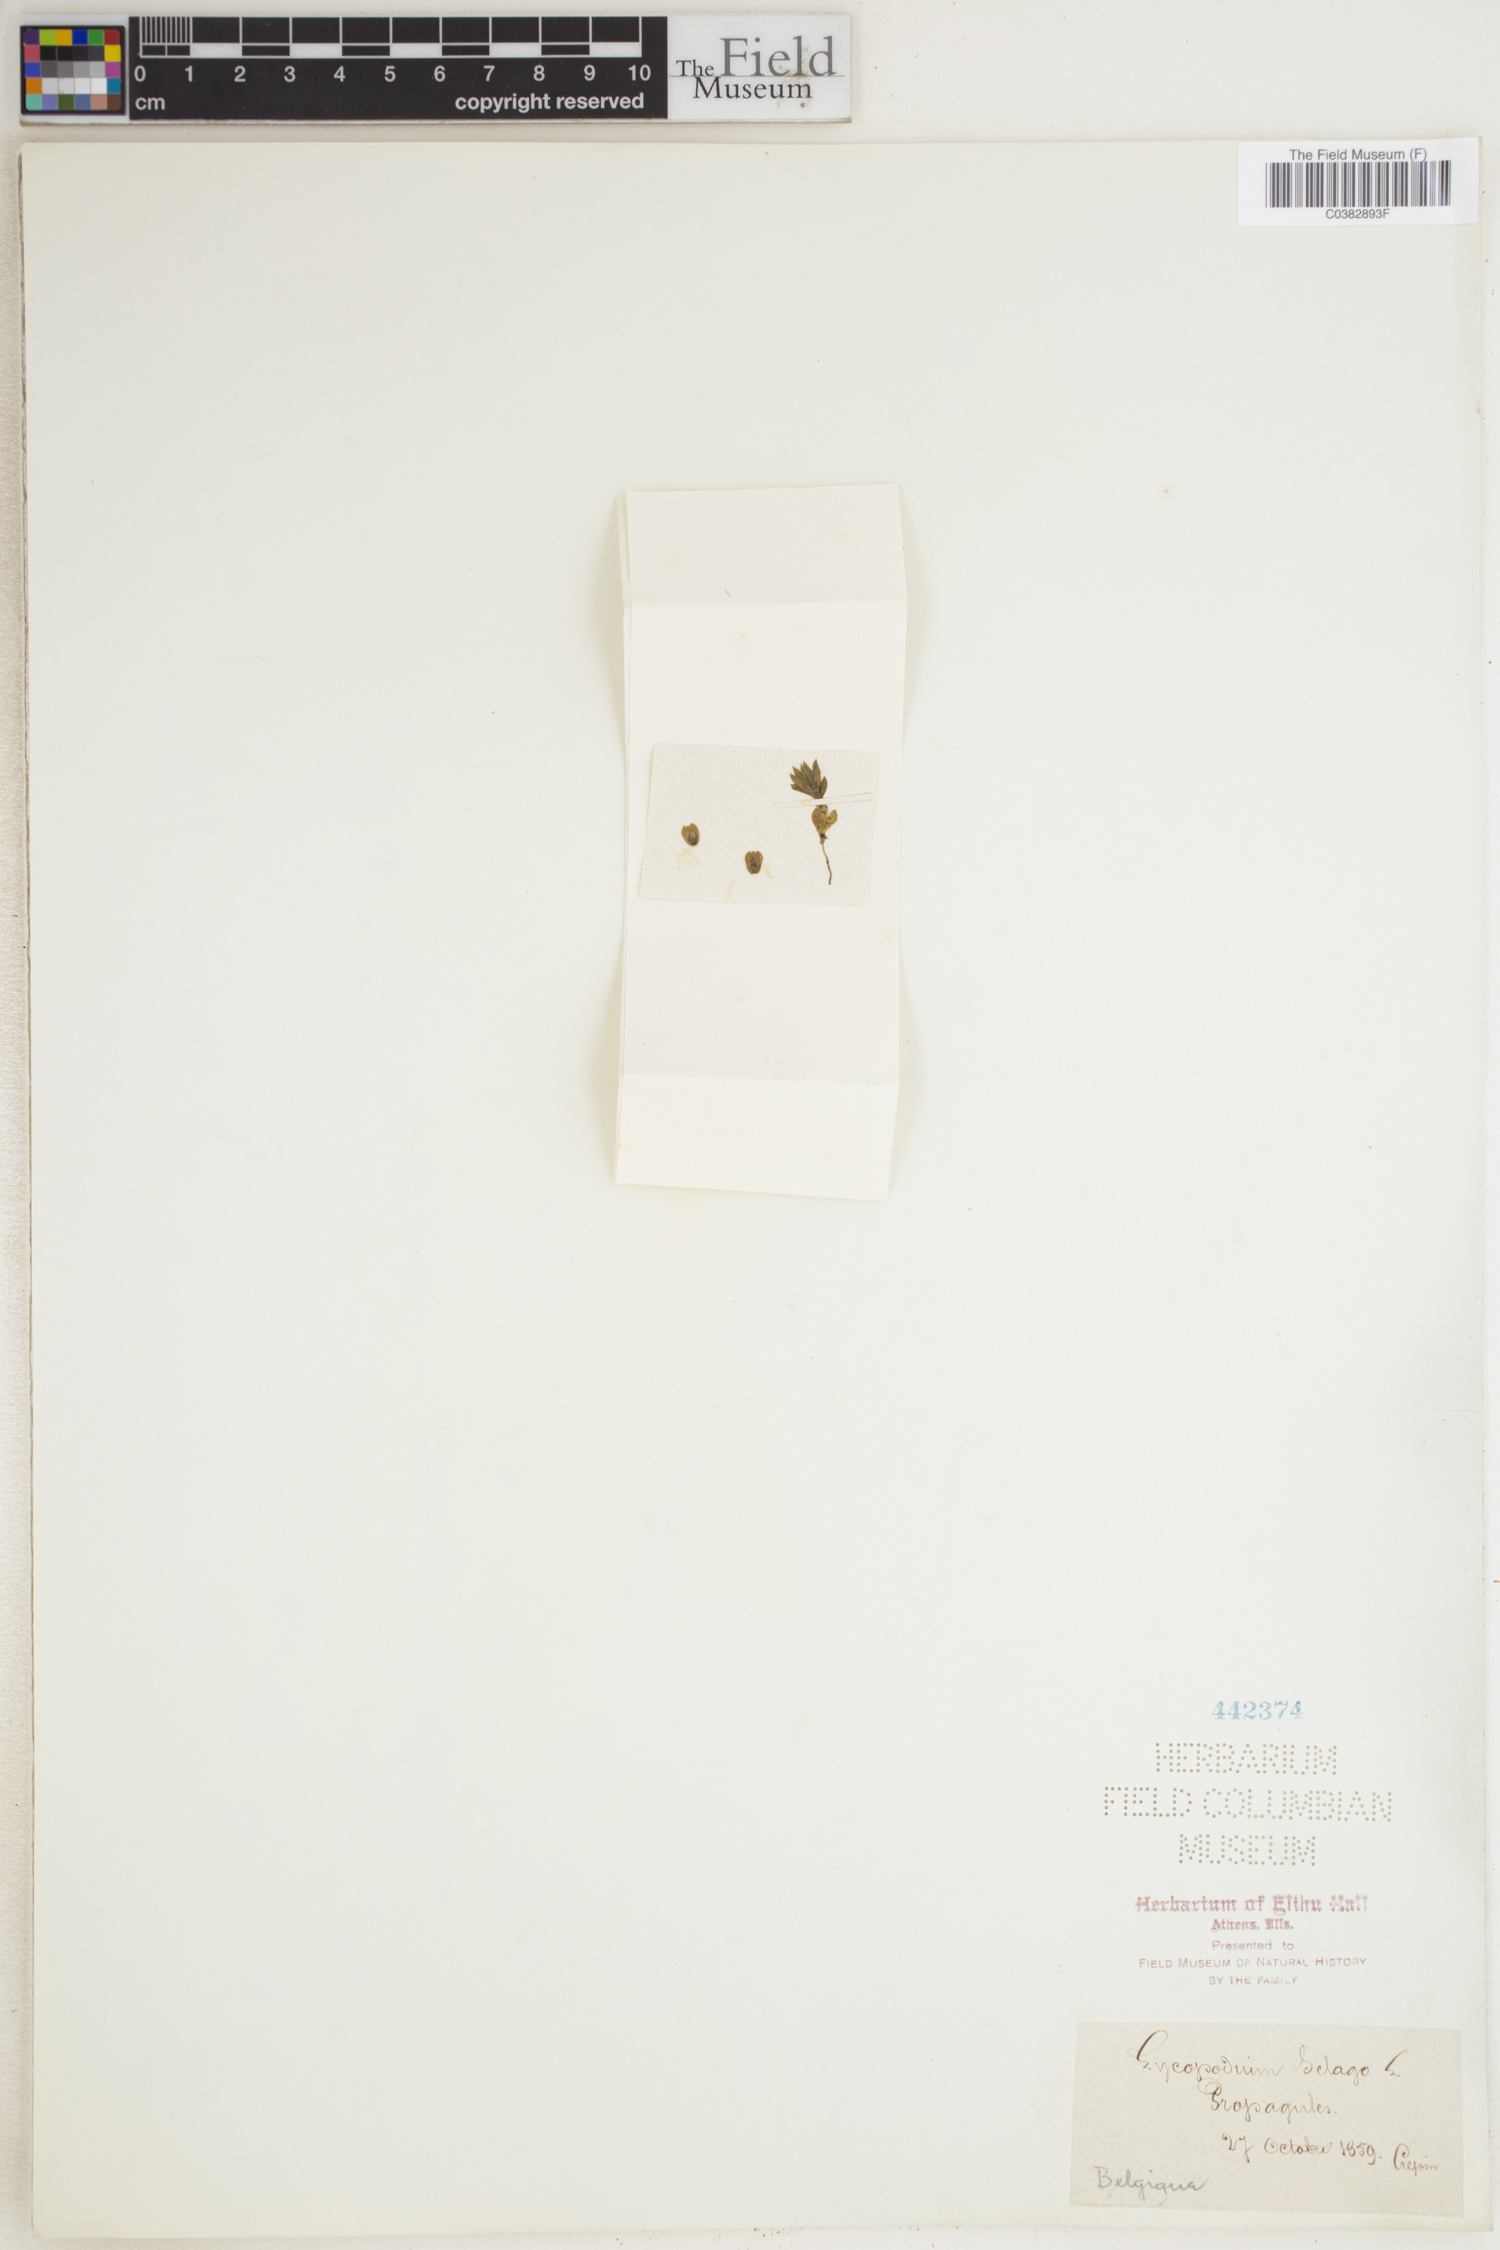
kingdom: Plantae
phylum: Tracheophyta
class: Lycopodiopsida
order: Lycopodiales
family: Lycopodiaceae
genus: Huperzia
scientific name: Huperzia selago
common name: Northern firmoss
